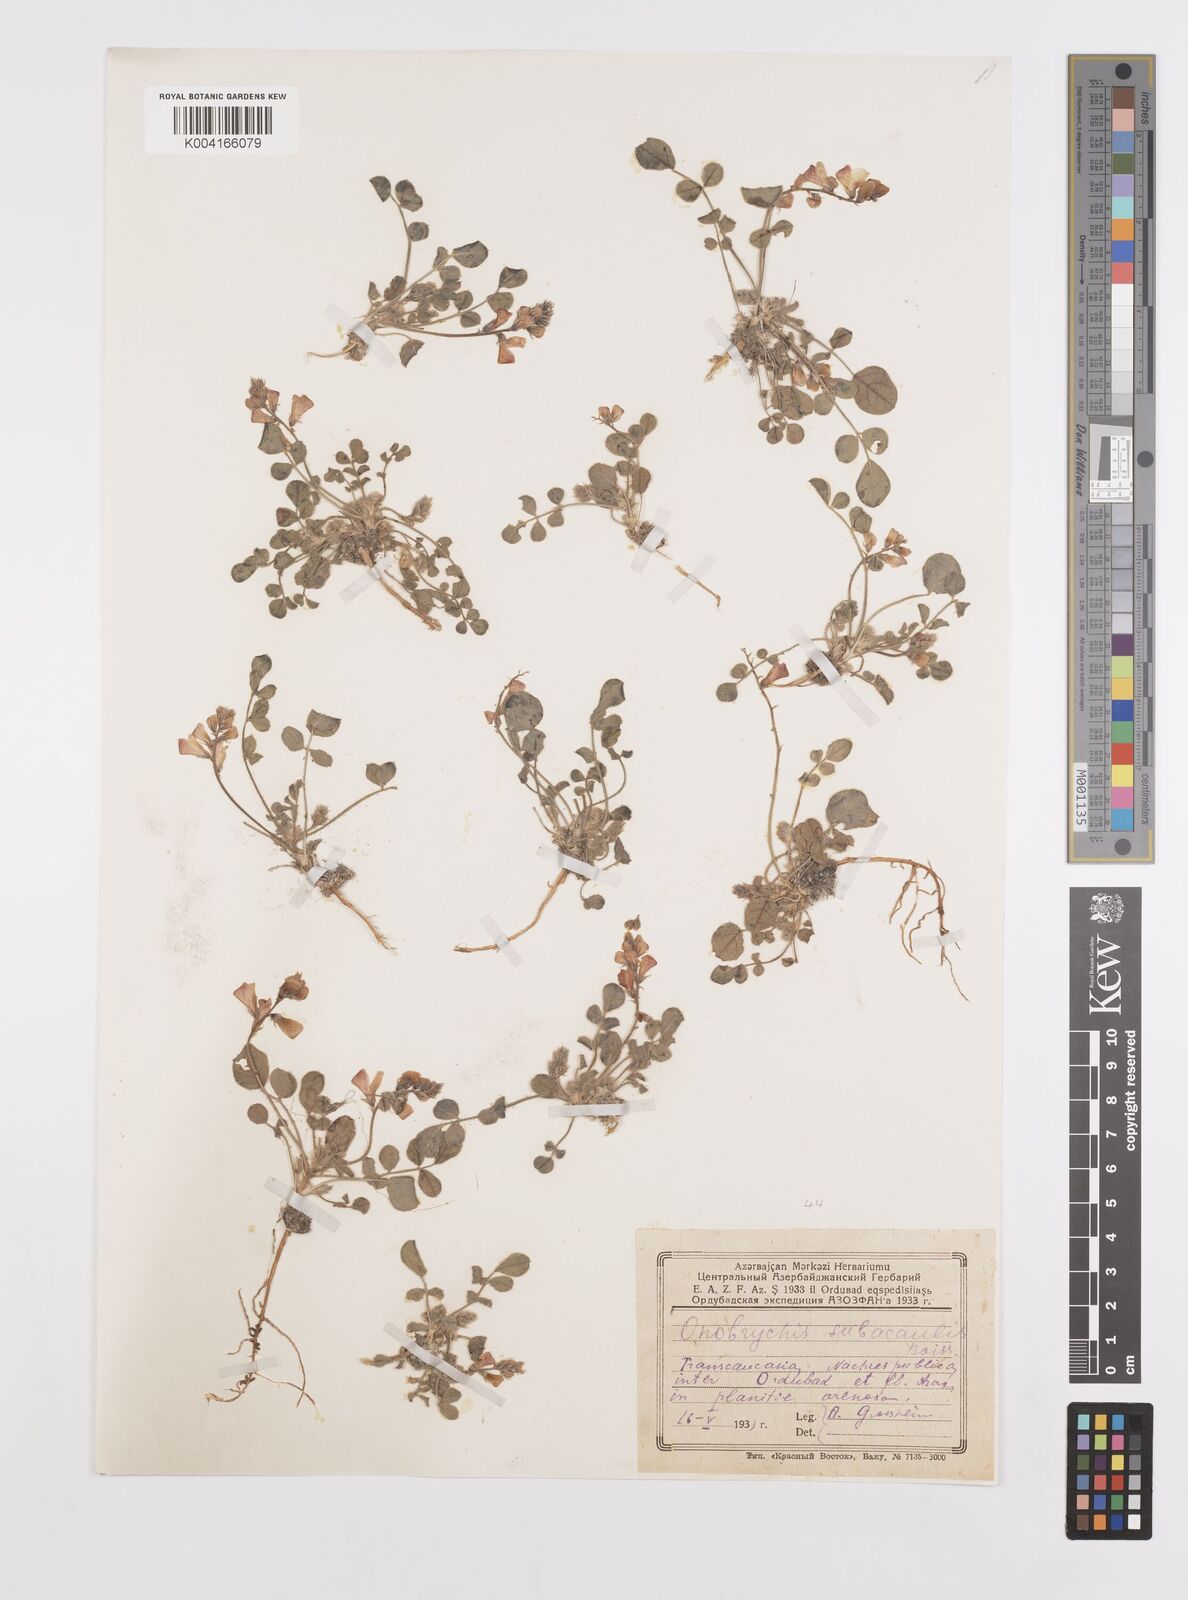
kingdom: Plantae
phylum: Tracheophyta
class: Magnoliopsida
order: Fabales
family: Fabaceae
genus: Onobrychis
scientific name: Onobrychis subacaulis
